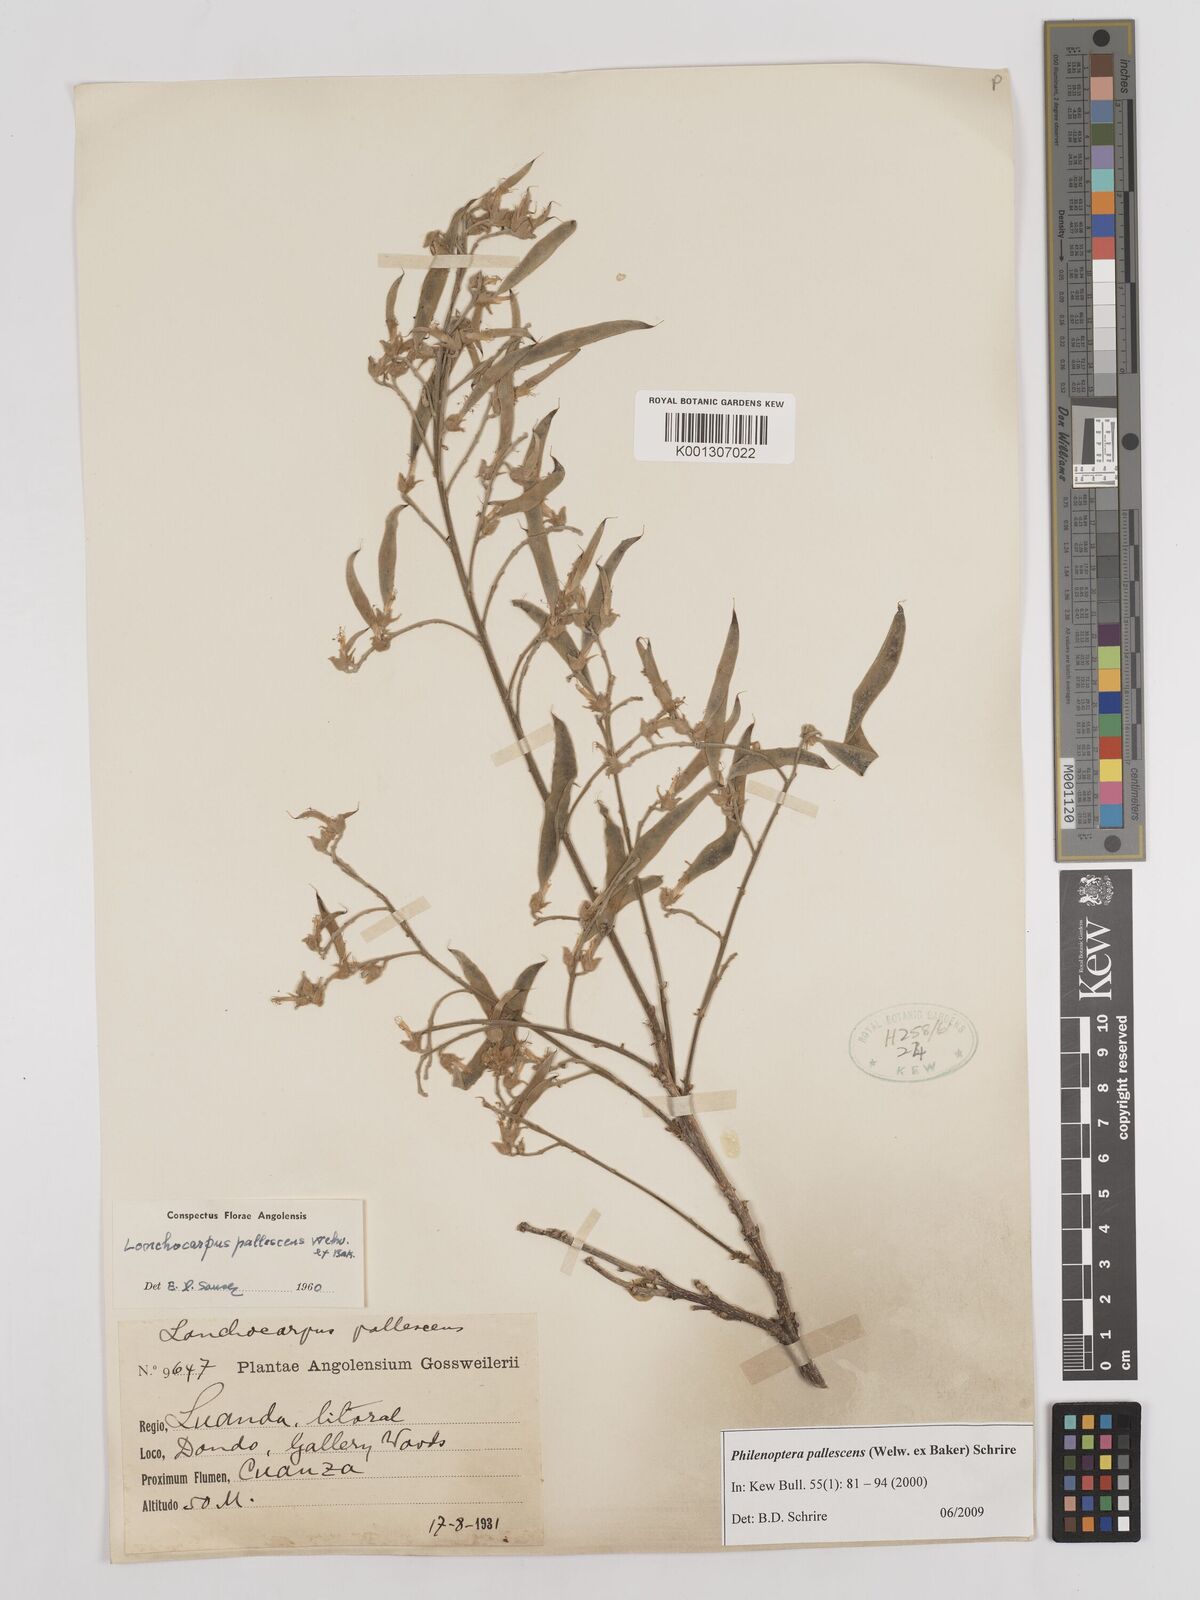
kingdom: Plantae
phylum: Tracheophyta
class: Magnoliopsida
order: Fabales
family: Fabaceae
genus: Philenoptera
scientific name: Philenoptera pallescens
